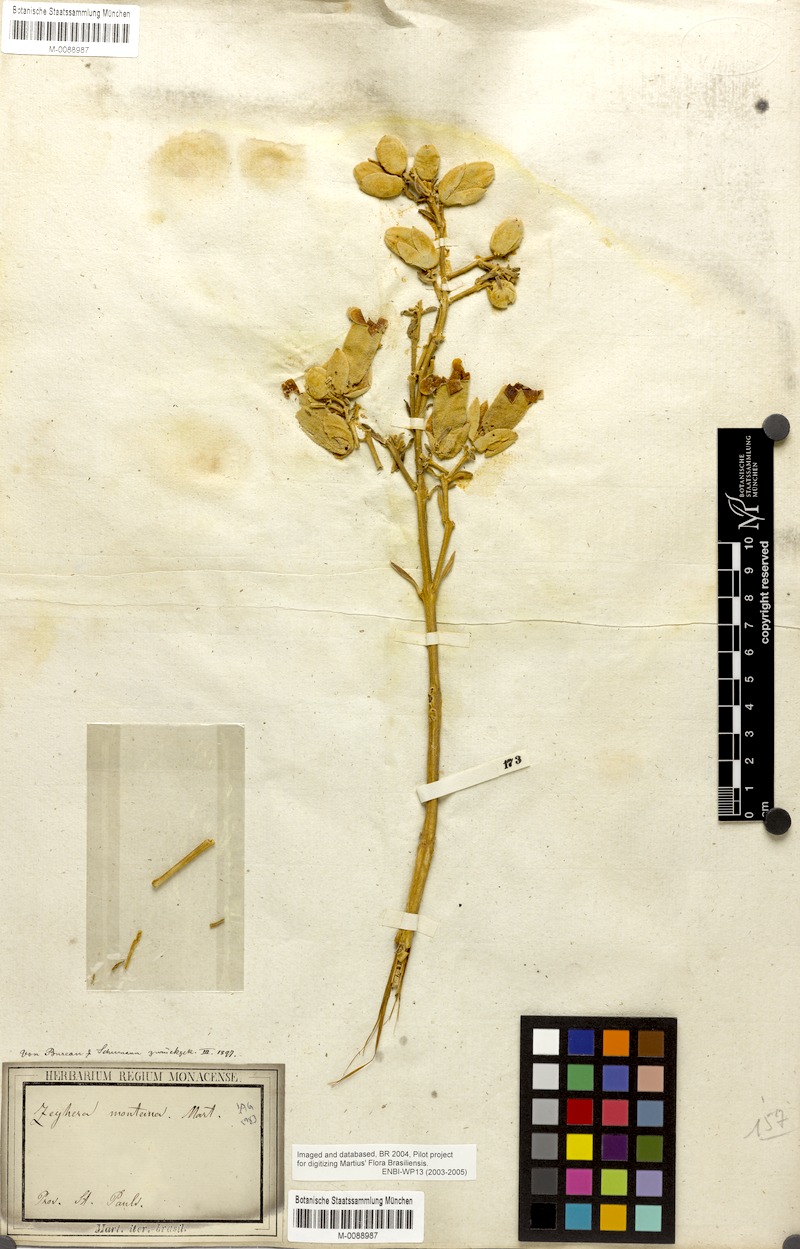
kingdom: Plantae
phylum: Tracheophyta
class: Magnoliopsida
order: Lamiales
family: Bignoniaceae
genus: Zeyheria
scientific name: Zeyheria montana
